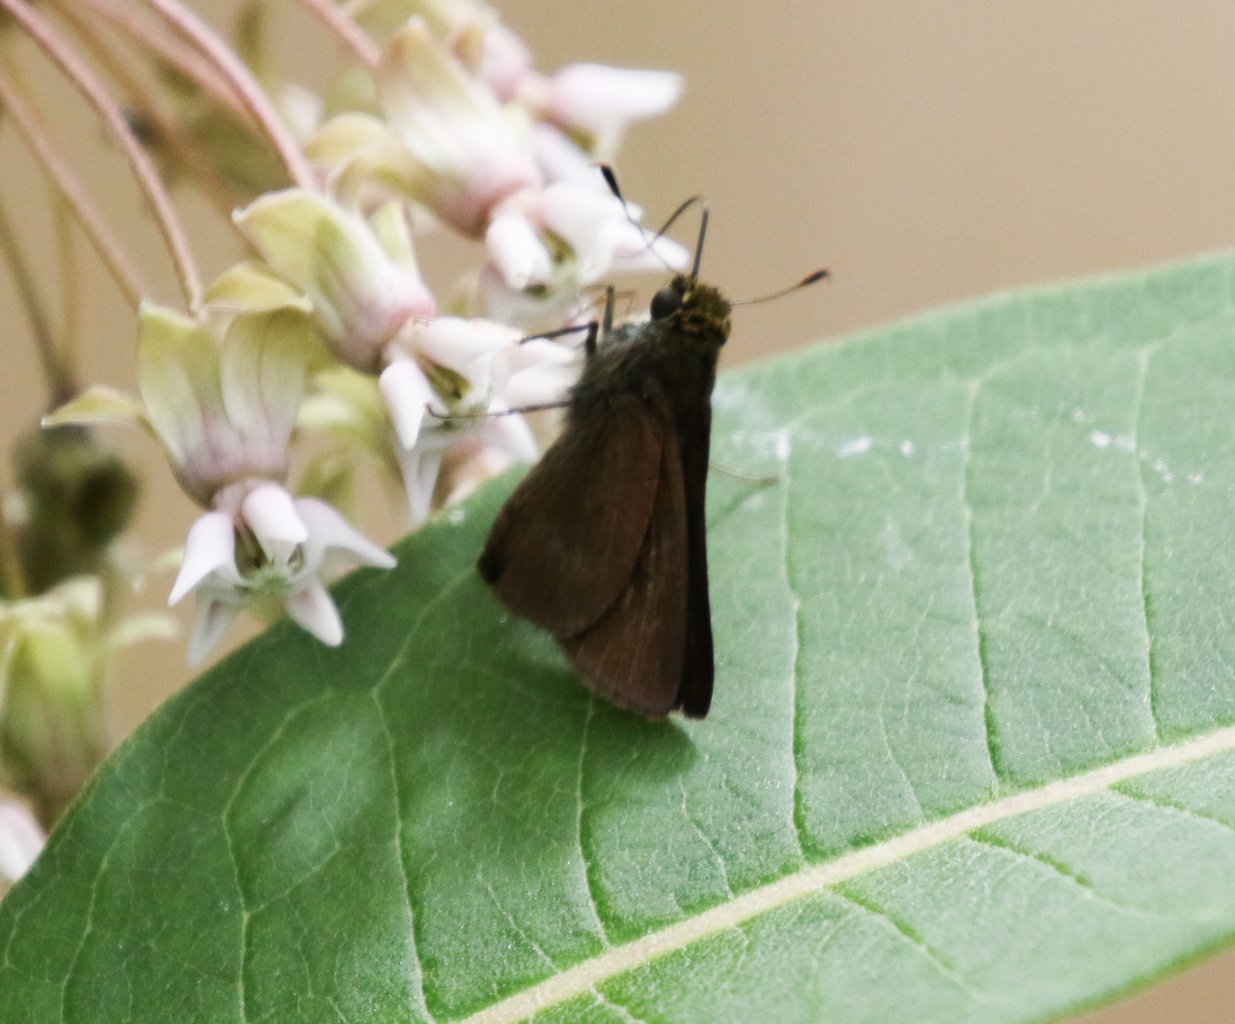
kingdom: Animalia
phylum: Arthropoda
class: Insecta
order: Lepidoptera
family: Hesperiidae
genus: Euphyes
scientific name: Euphyes vestris
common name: Dun Skipper
